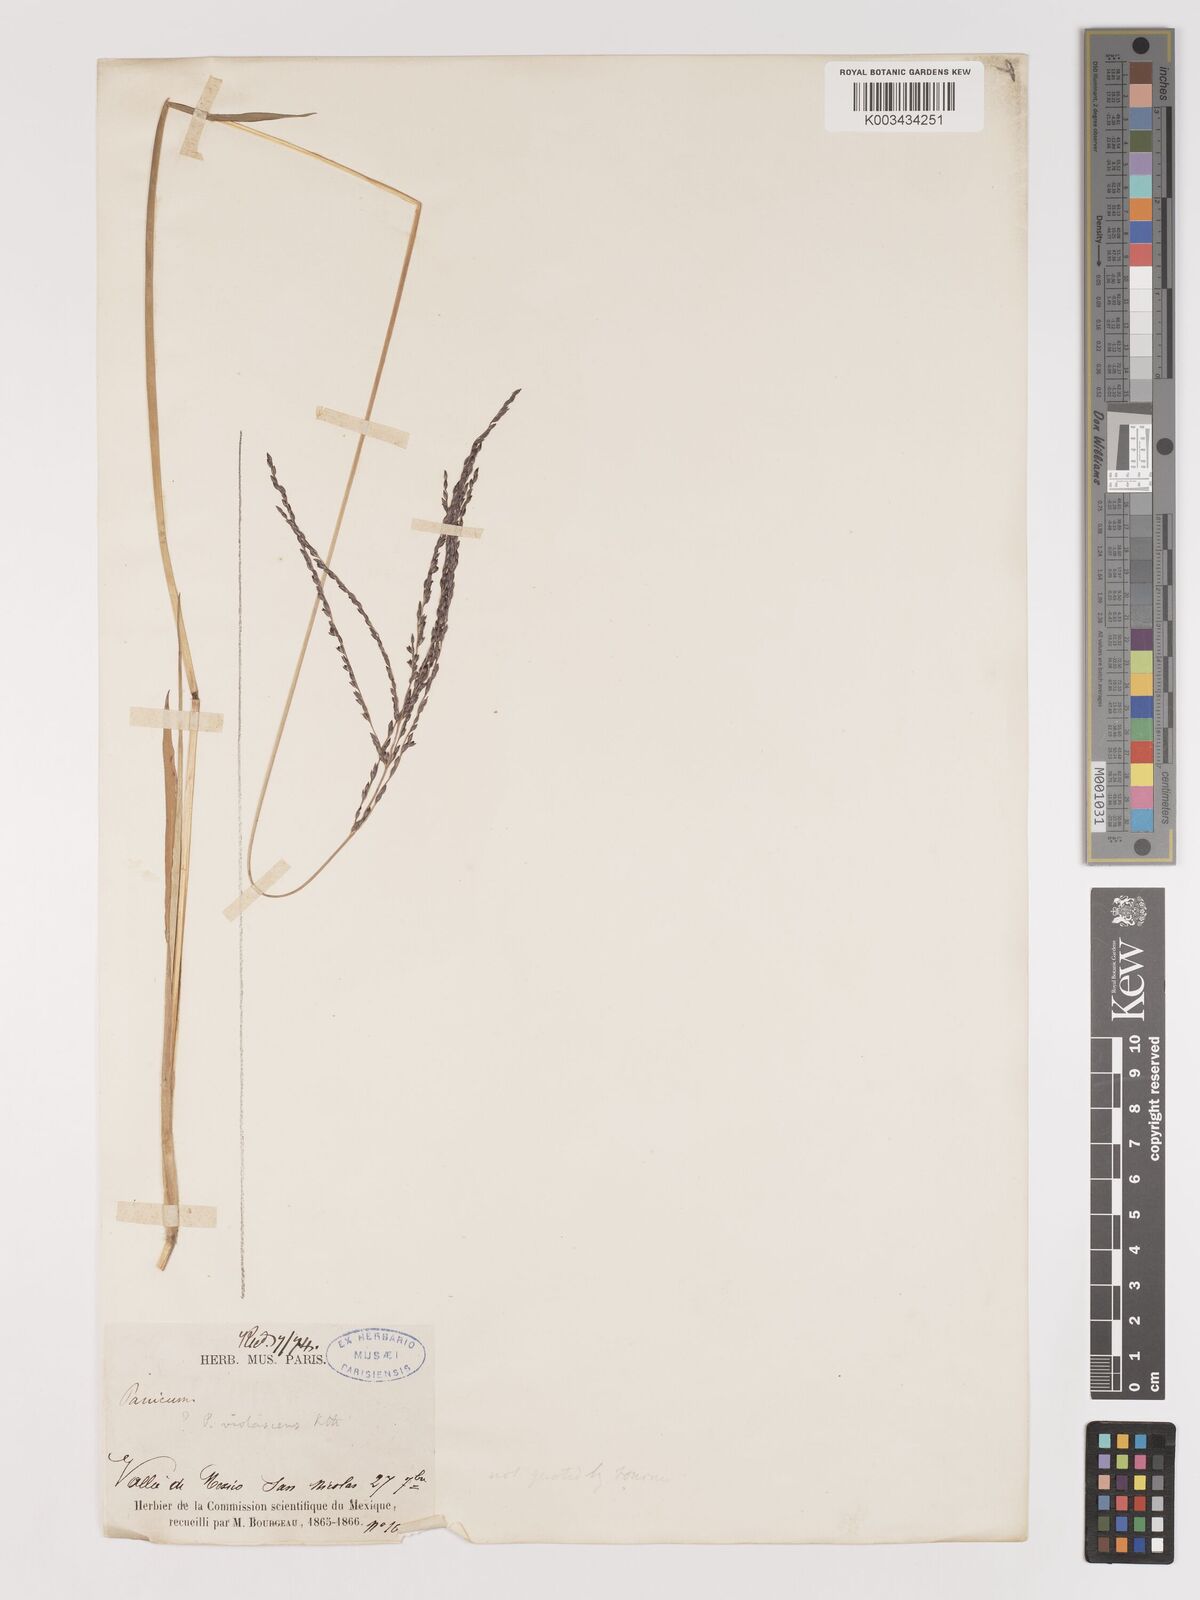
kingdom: Plantae
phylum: Tracheophyta
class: Liliopsida
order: Poales
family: Poaceae
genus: Digitaria
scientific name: Digitaria leucites
